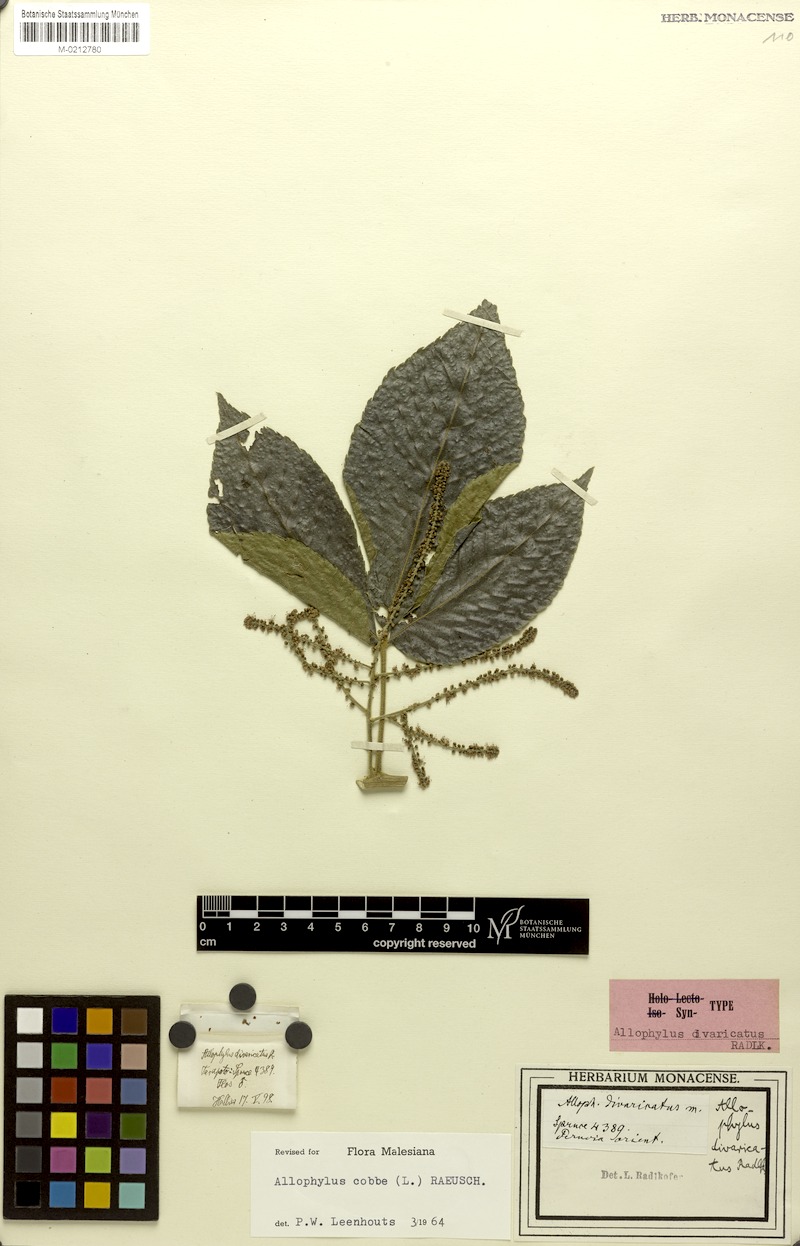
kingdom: Plantae
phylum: Tracheophyta
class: Magnoliopsida
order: Sapindales
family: Sapindaceae
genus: Allophylus
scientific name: Allophylus cobbe
